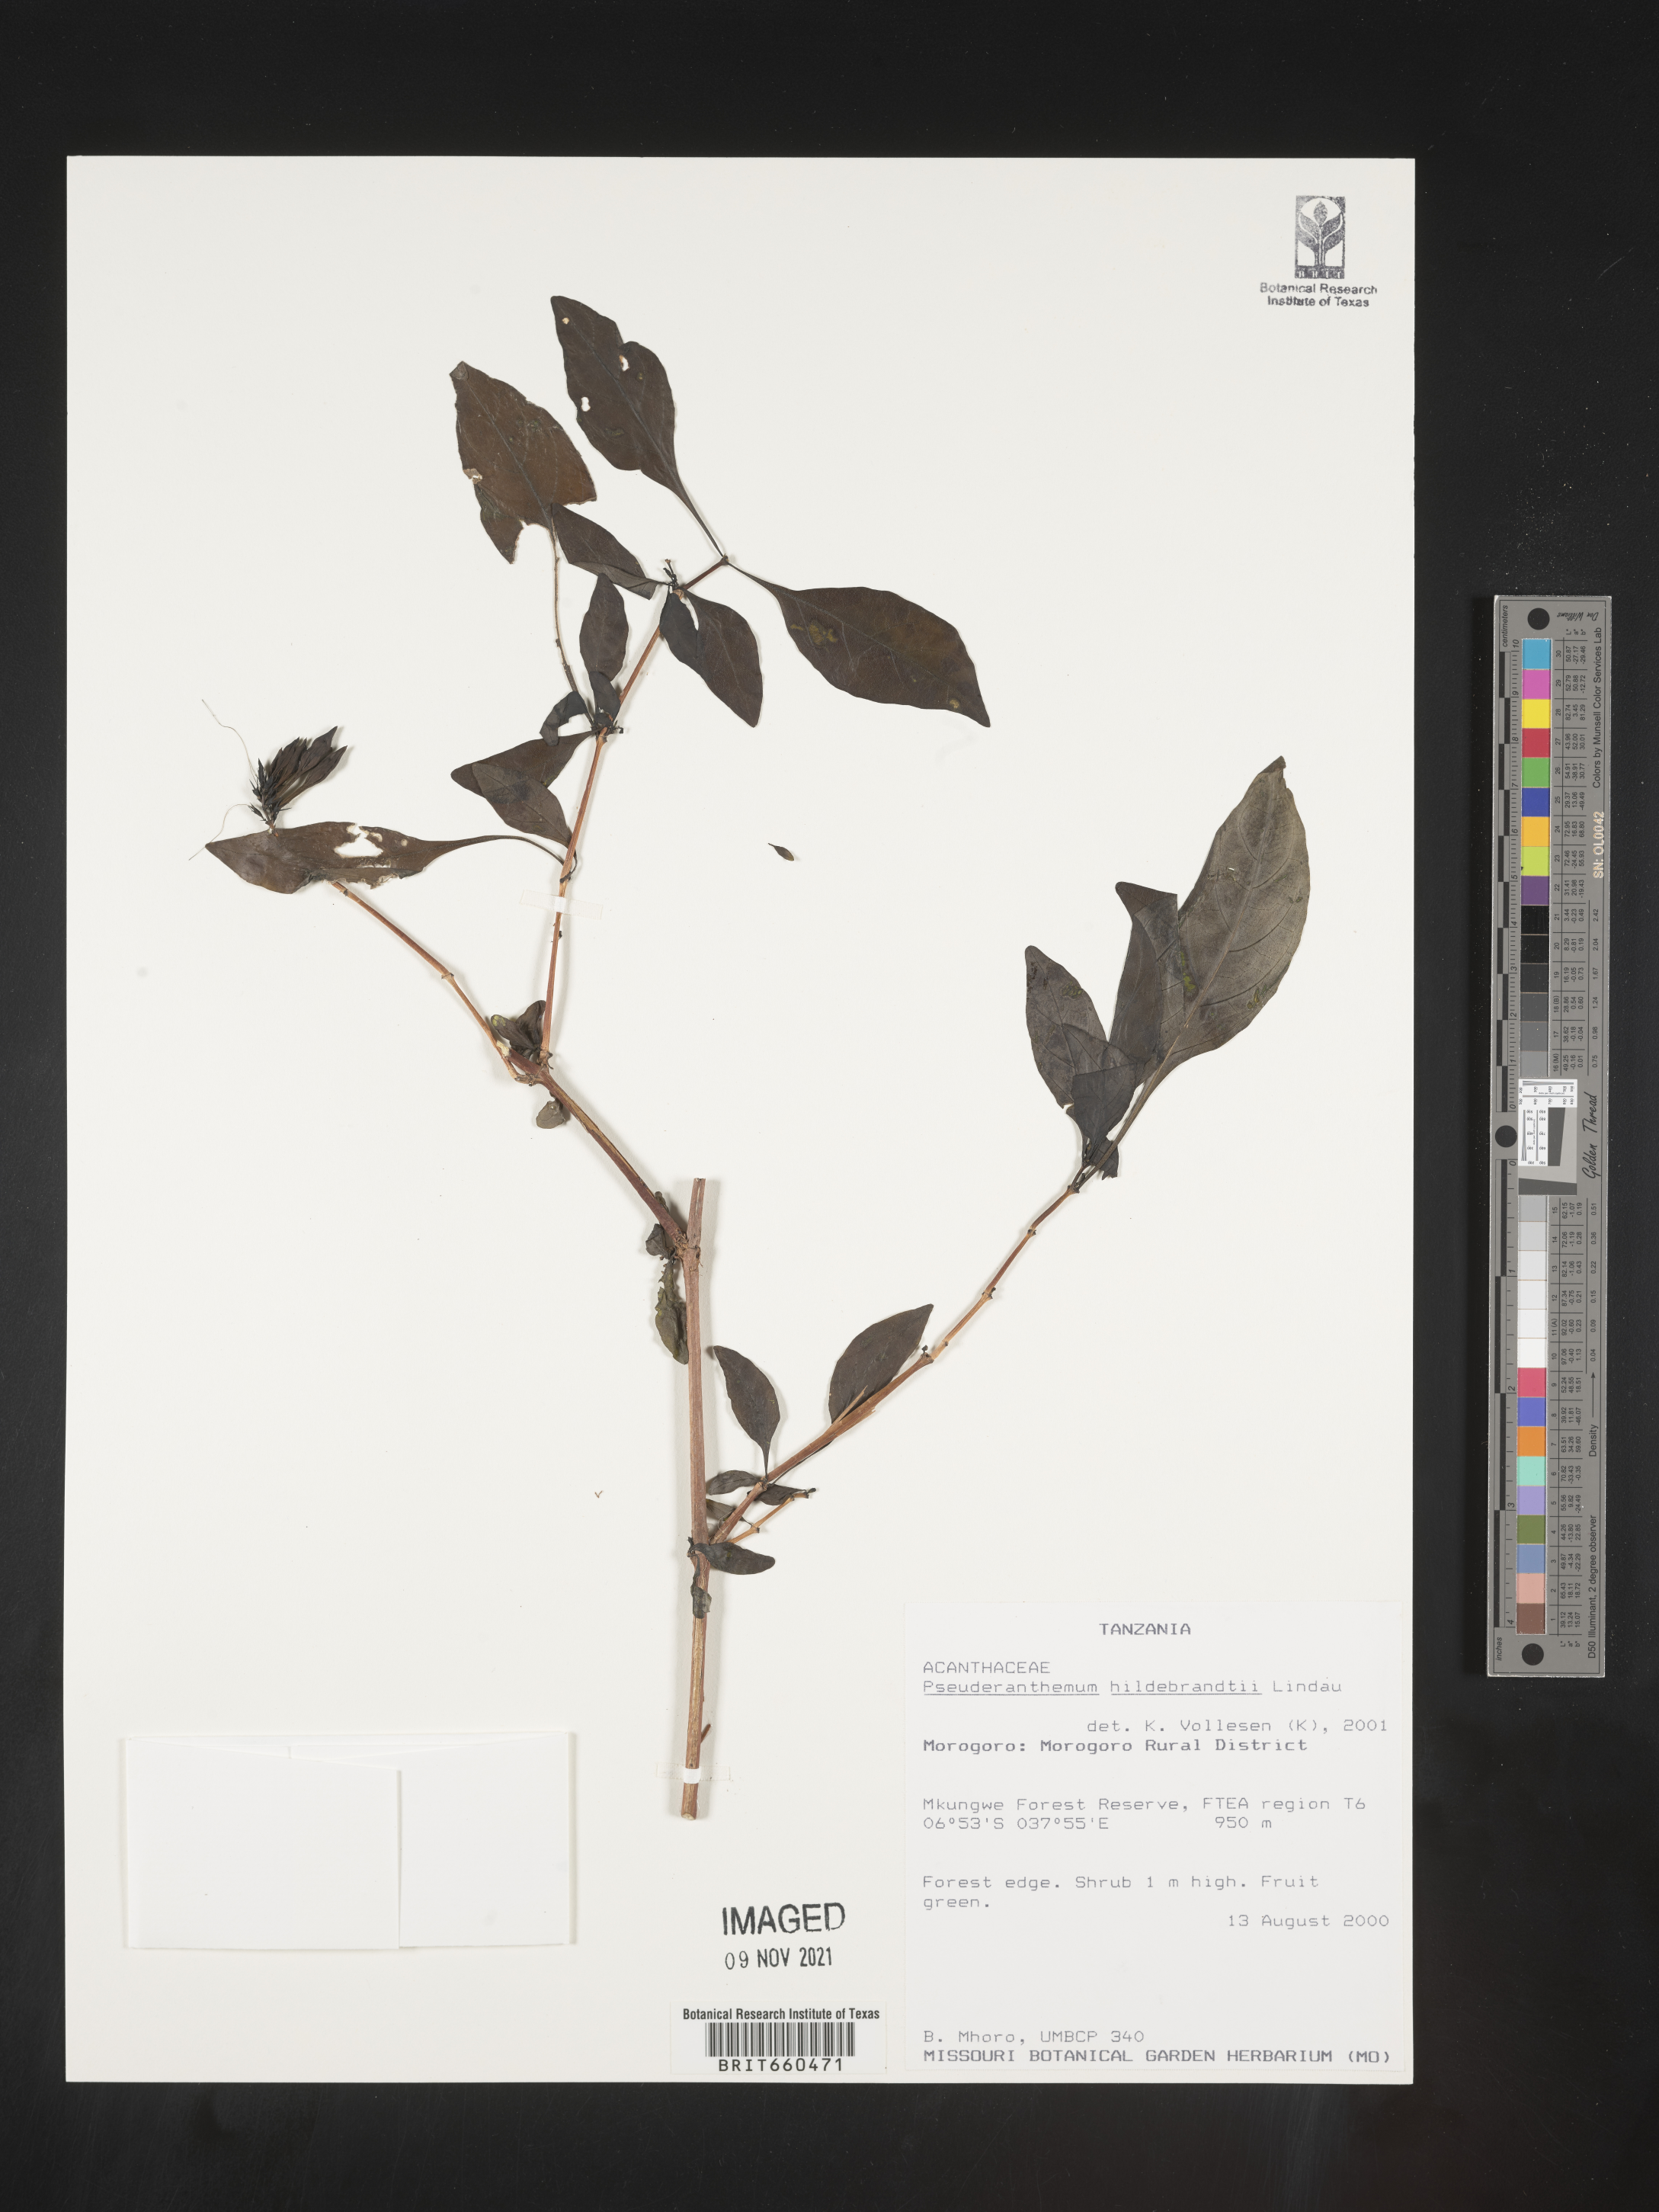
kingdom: Plantae
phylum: Tracheophyta
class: Magnoliopsida
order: Lamiales
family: Acanthaceae
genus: Pseuderanthemum
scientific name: Pseuderanthemum
